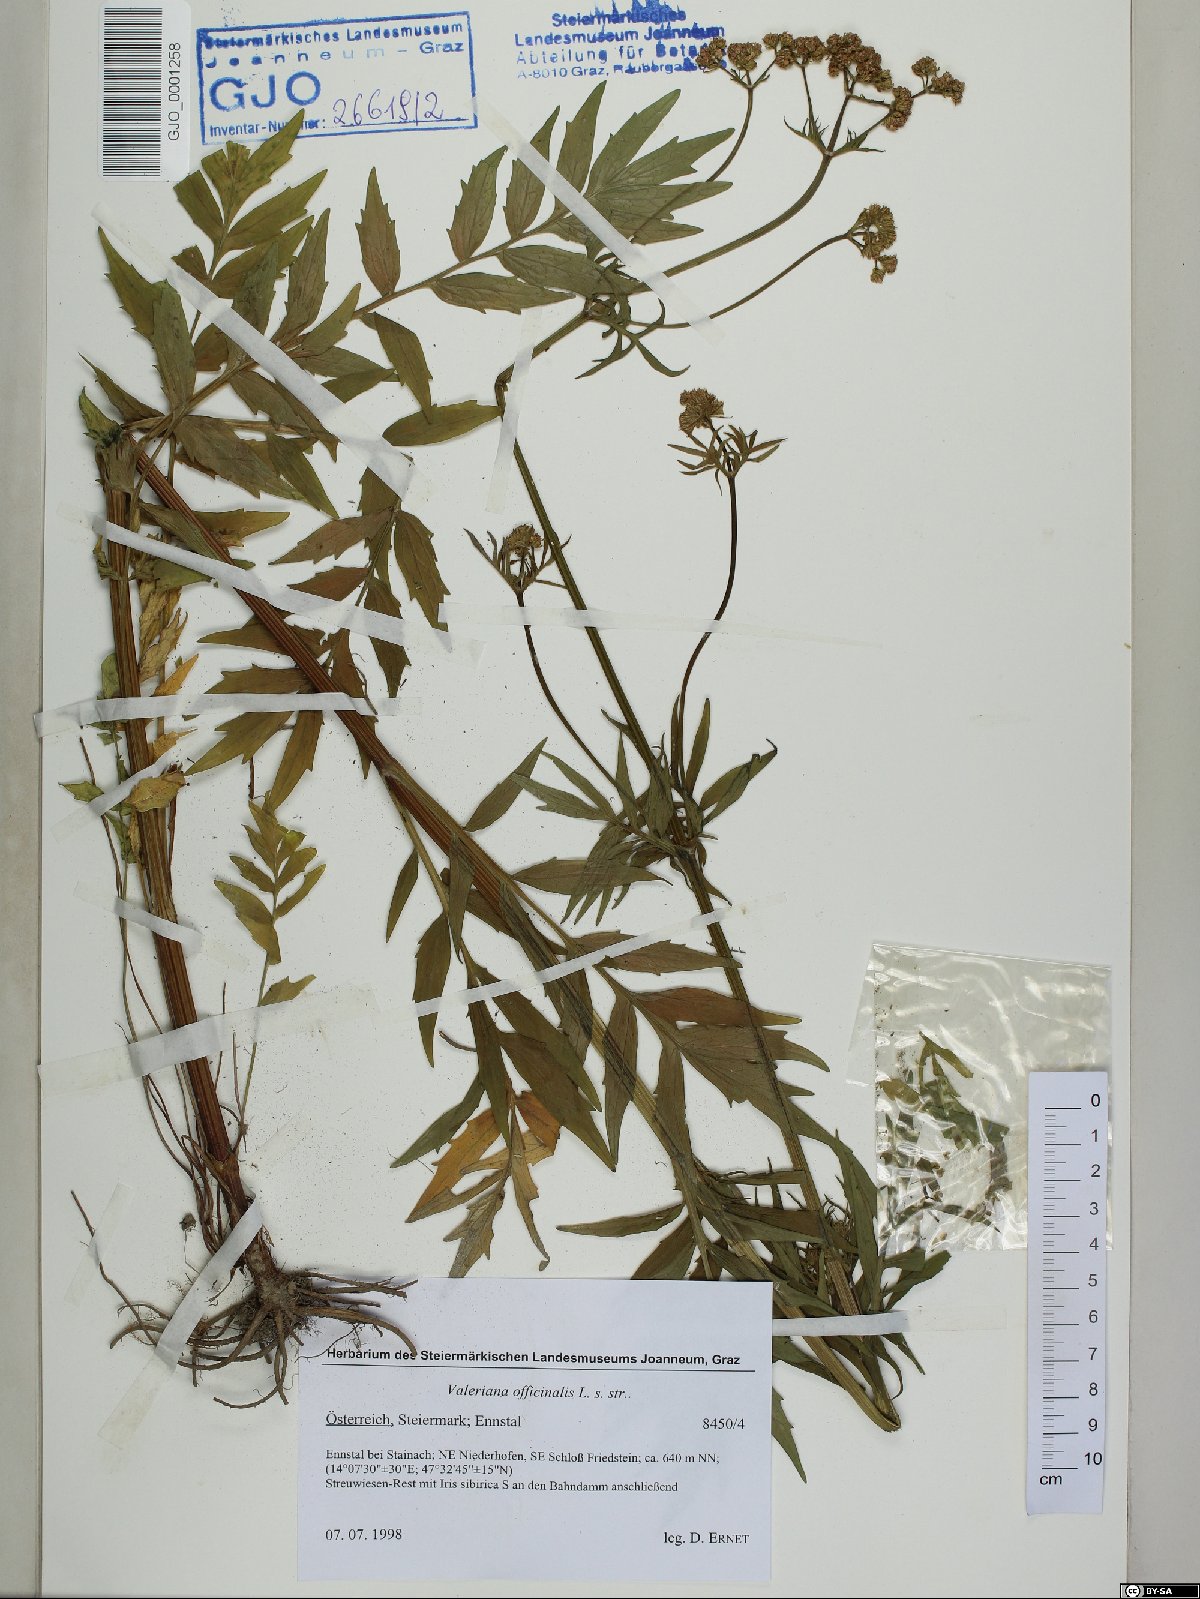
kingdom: Plantae
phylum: Tracheophyta
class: Magnoliopsida
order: Dipsacales
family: Caprifoliaceae
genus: Valeriana
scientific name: Valeriana officinalis
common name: Common valerian
